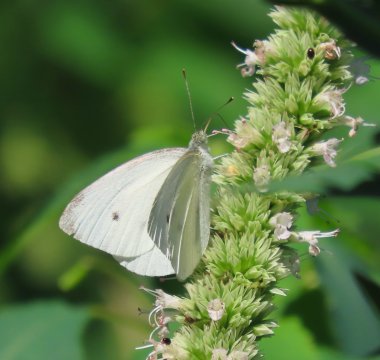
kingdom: Animalia
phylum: Arthropoda
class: Insecta
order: Lepidoptera
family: Pieridae
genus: Pieris
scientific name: Pieris rapae
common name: Cabbage White
